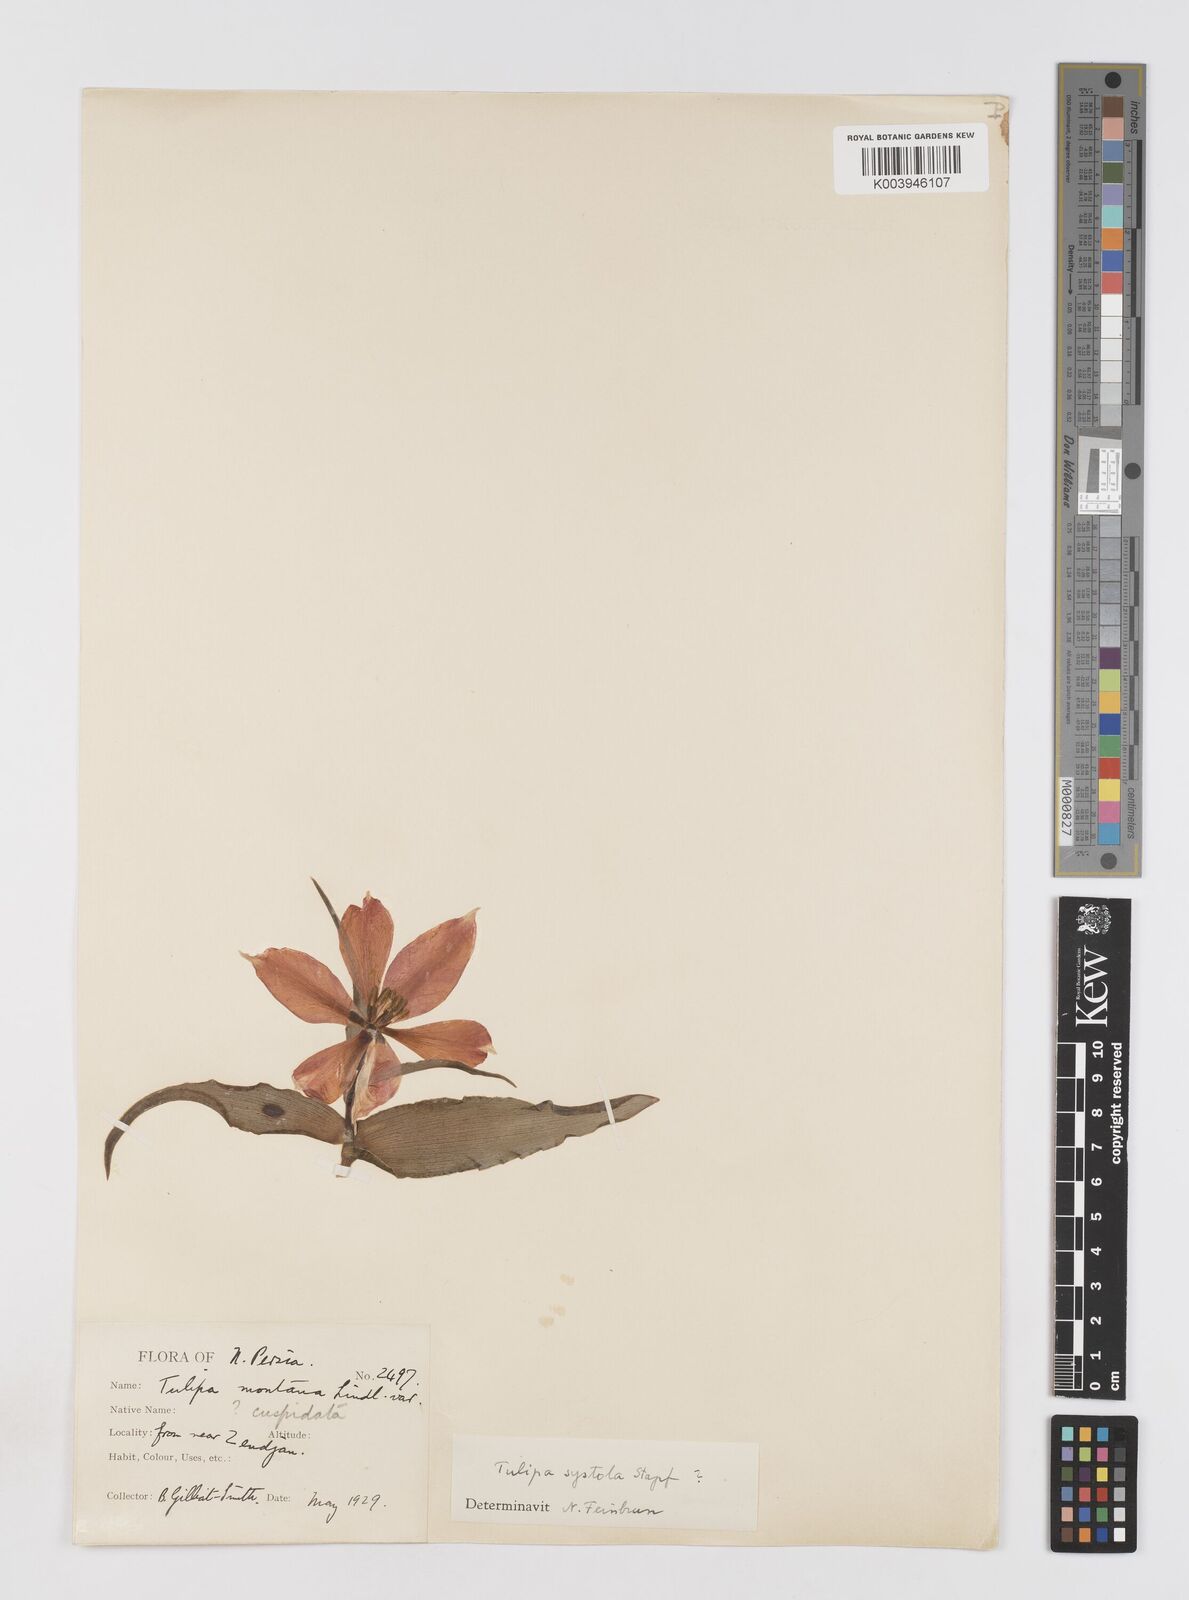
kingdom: Plantae
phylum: Tracheophyta
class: Liliopsida
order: Liliales
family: Liliaceae
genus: Tulipa
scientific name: Tulipa systola
